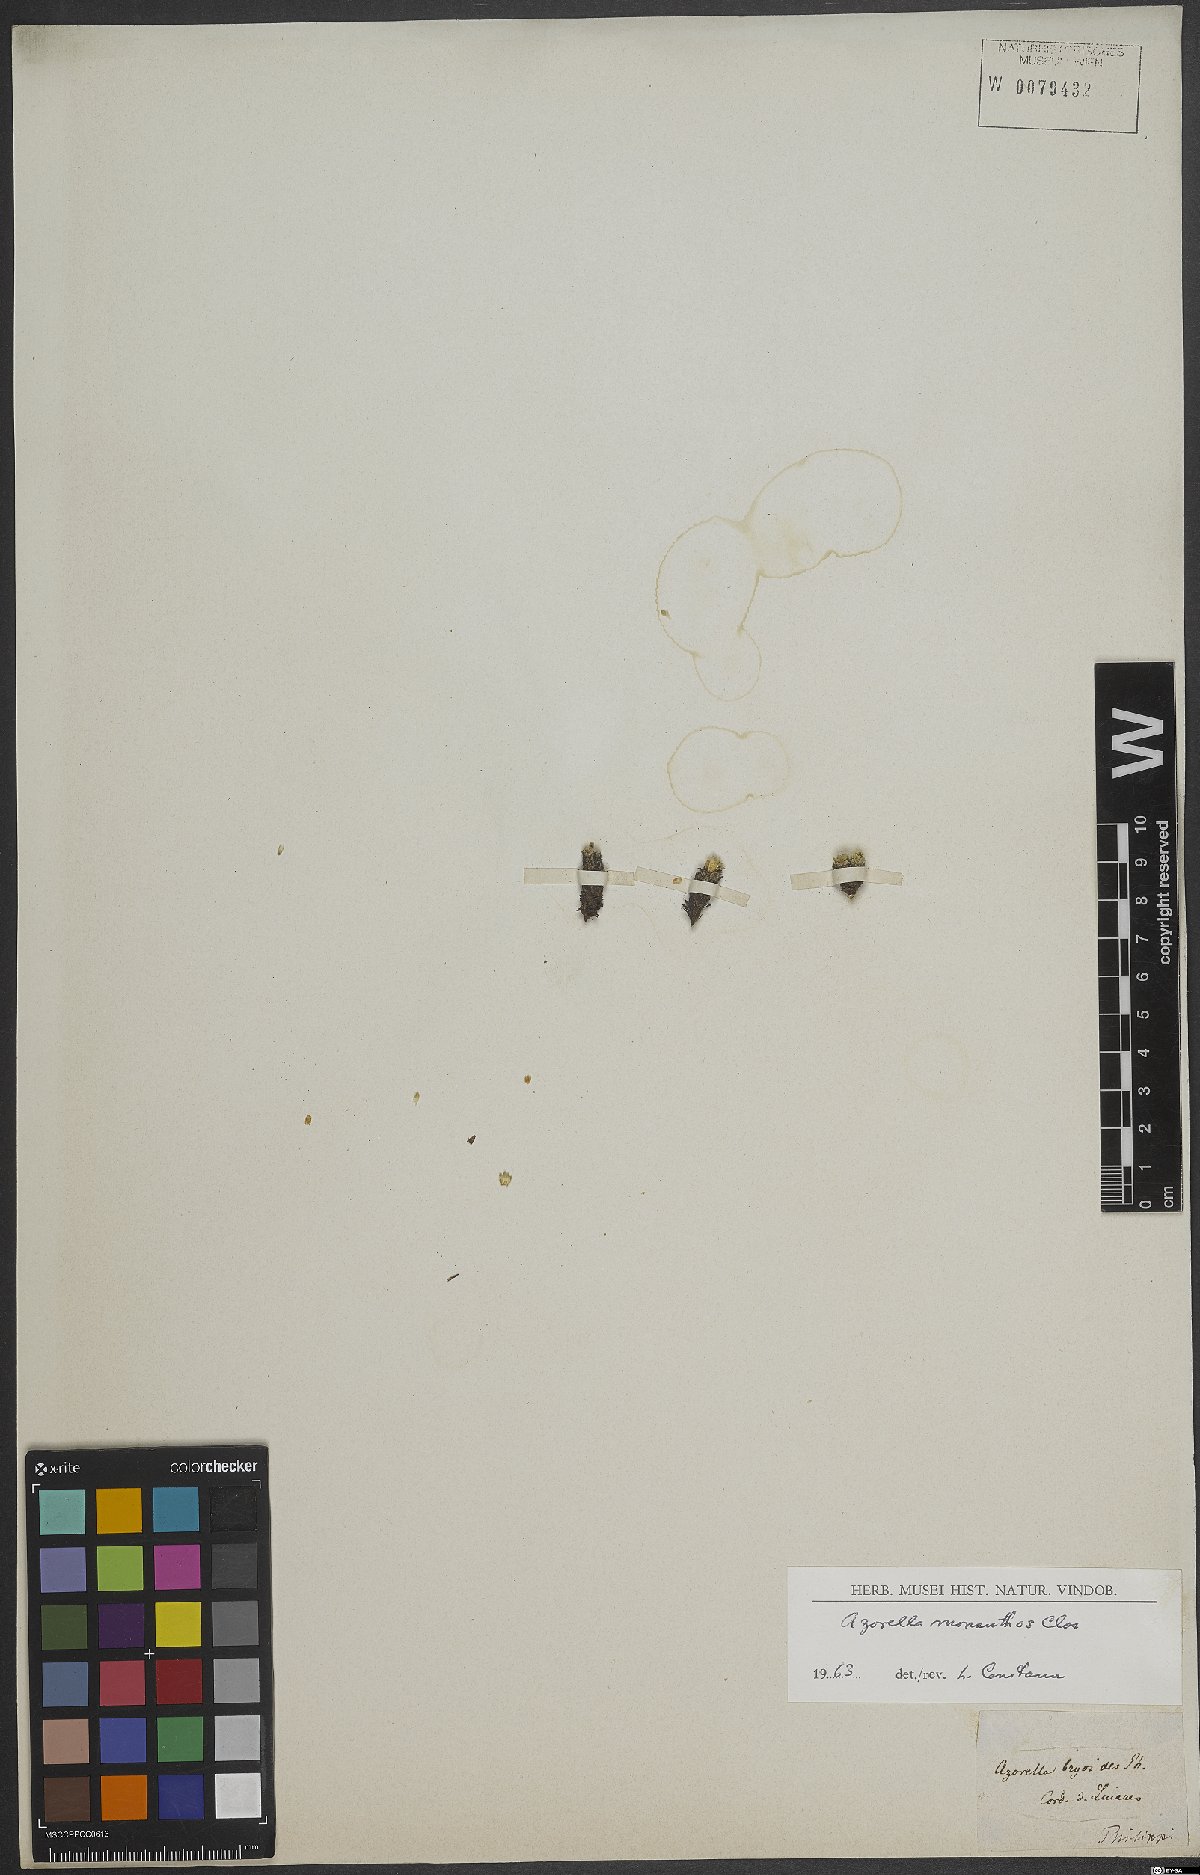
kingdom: Plantae
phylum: Tracheophyta
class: Magnoliopsida
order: Apiales
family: Apiaceae
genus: Azorella
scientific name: Azorella monantha
